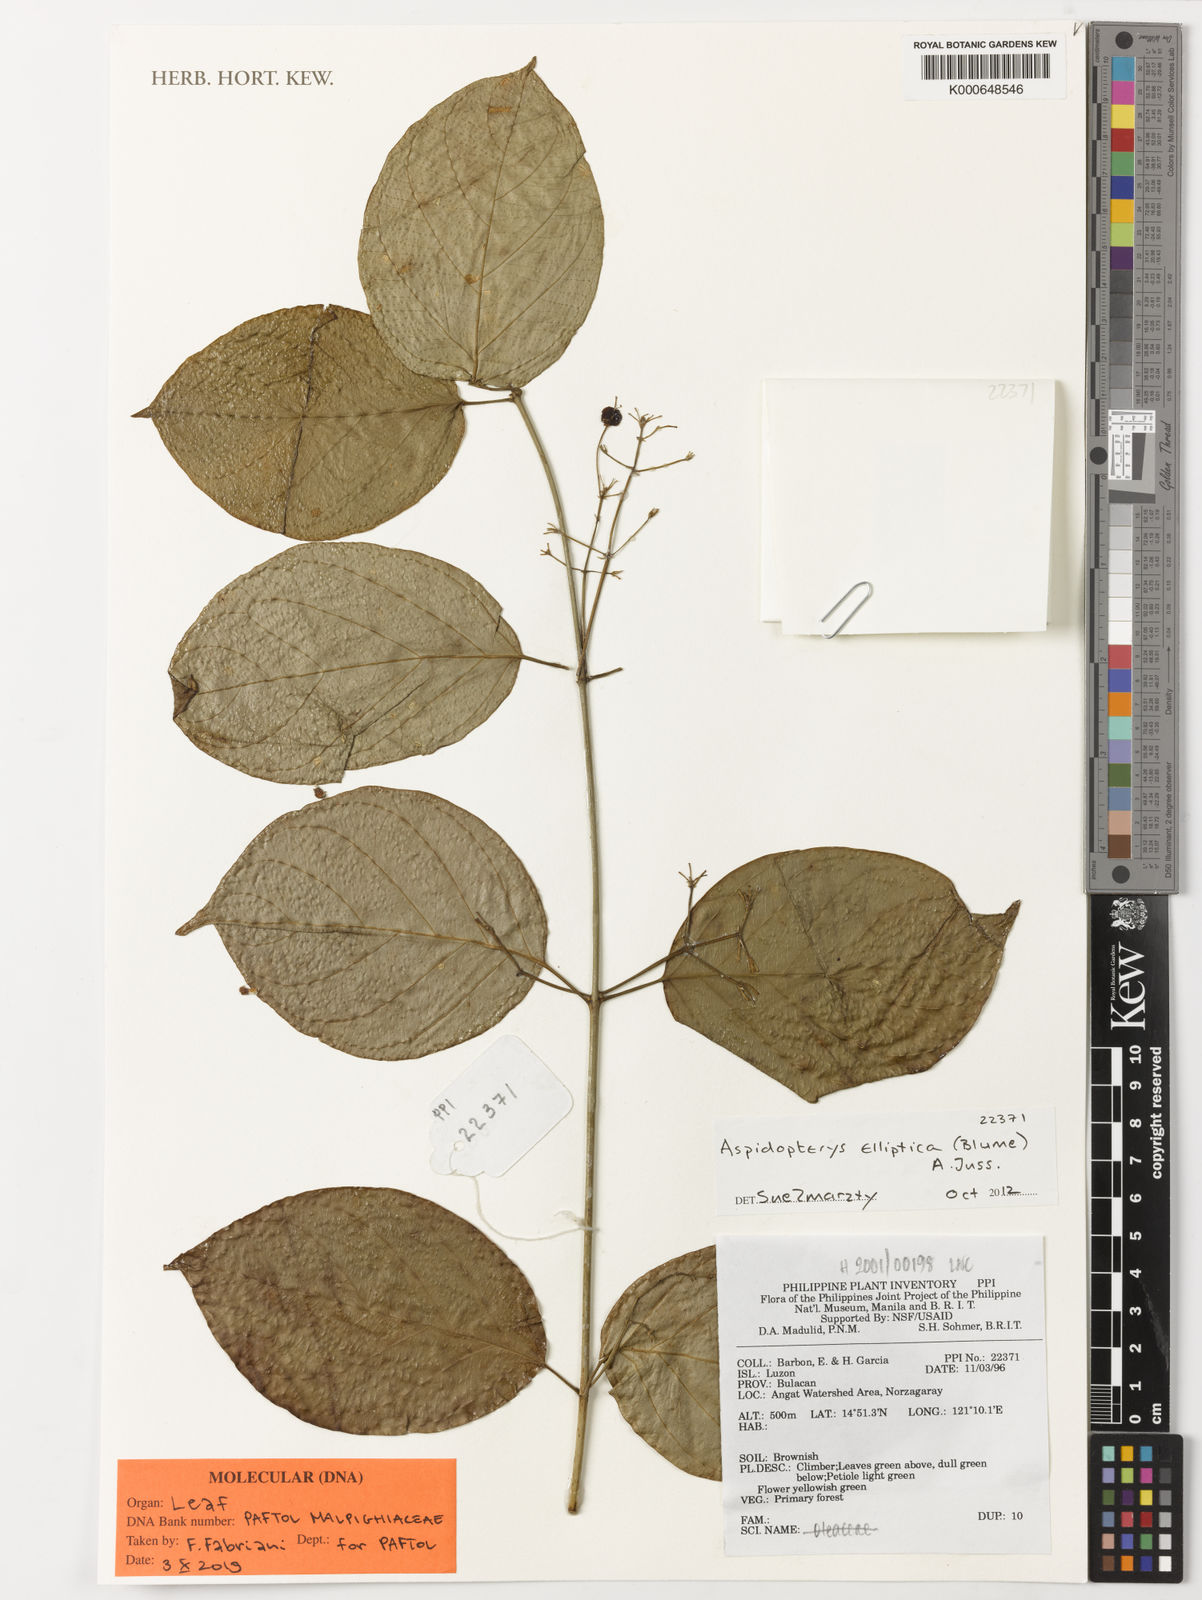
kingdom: Plantae
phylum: Tracheophyta
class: Magnoliopsida
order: Malpighiales
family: Malpighiaceae
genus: Aspidopterys
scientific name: Aspidopterys elliptica
